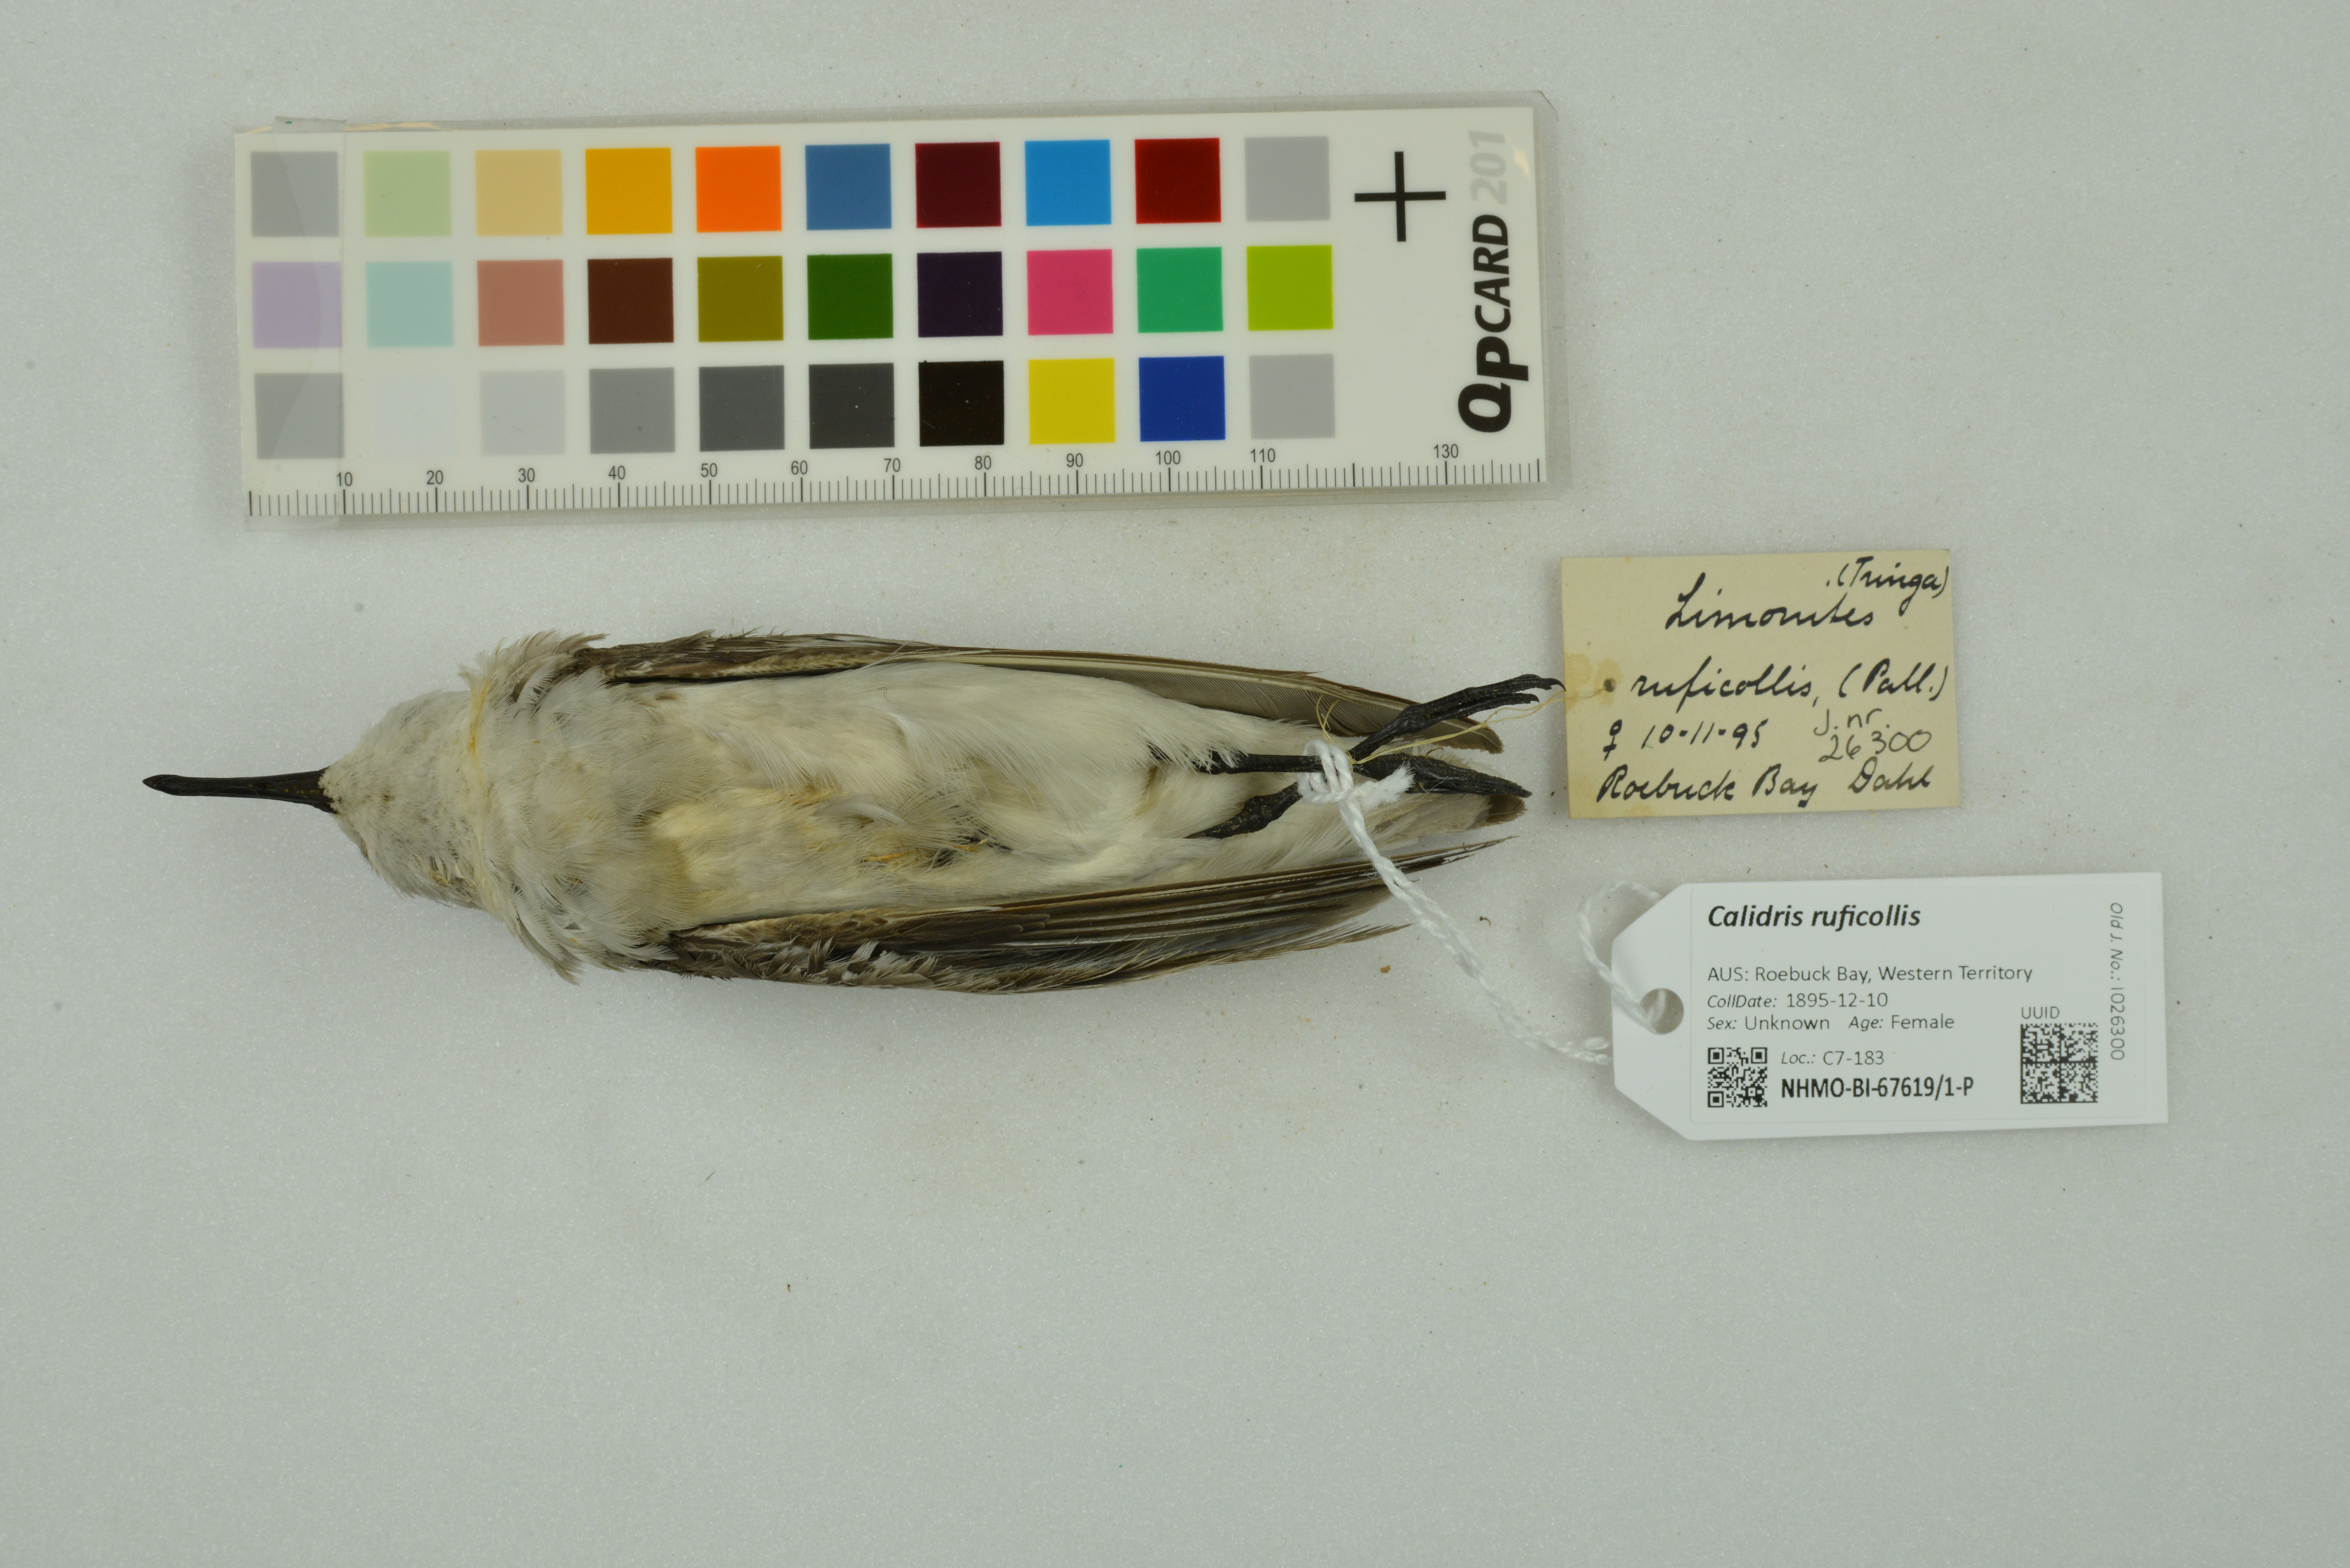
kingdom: Animalia
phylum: Chordata
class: Aves
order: Charadriiformes
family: Scolopacidae
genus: Calidris
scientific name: Calidris ruficollis
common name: Red-necked stint
